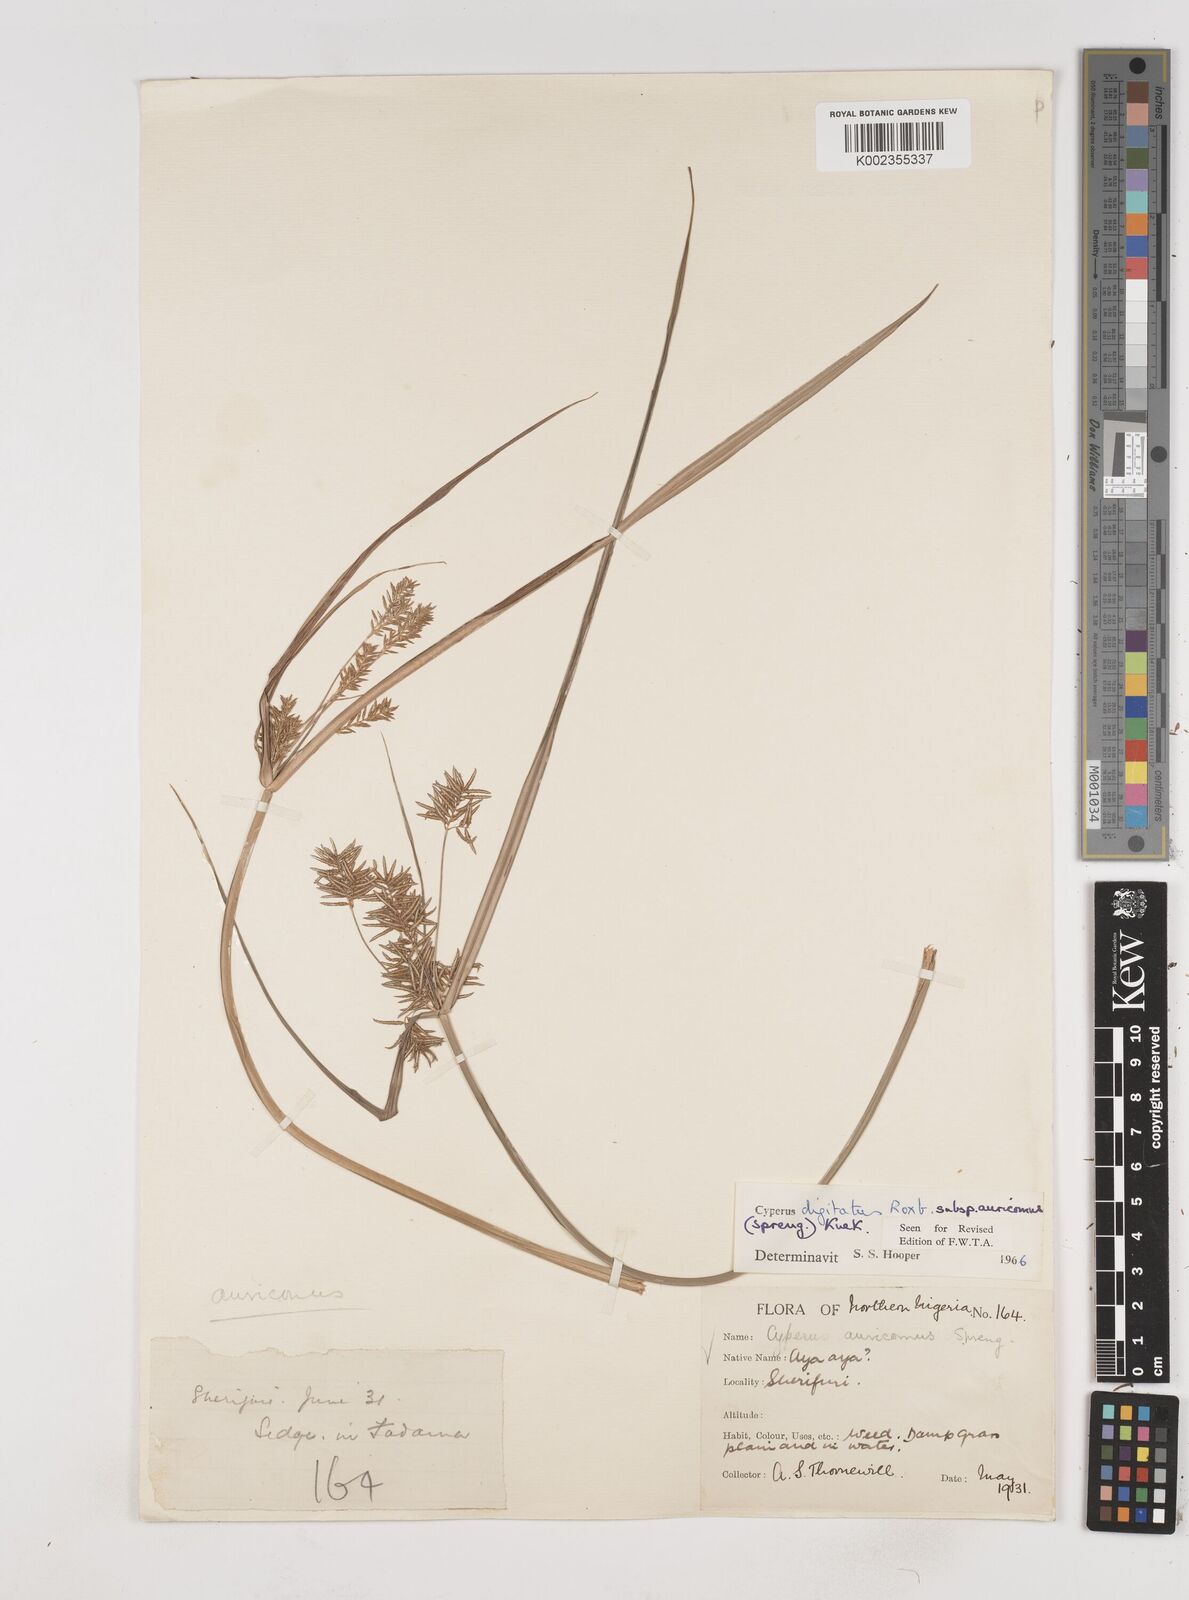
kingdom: Plantae
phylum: Tracheophyta
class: Liliopsida
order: Poales
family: Cyperaceae
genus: Cyperus
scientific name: Cyperus digitatus
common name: Finger flatsedge
